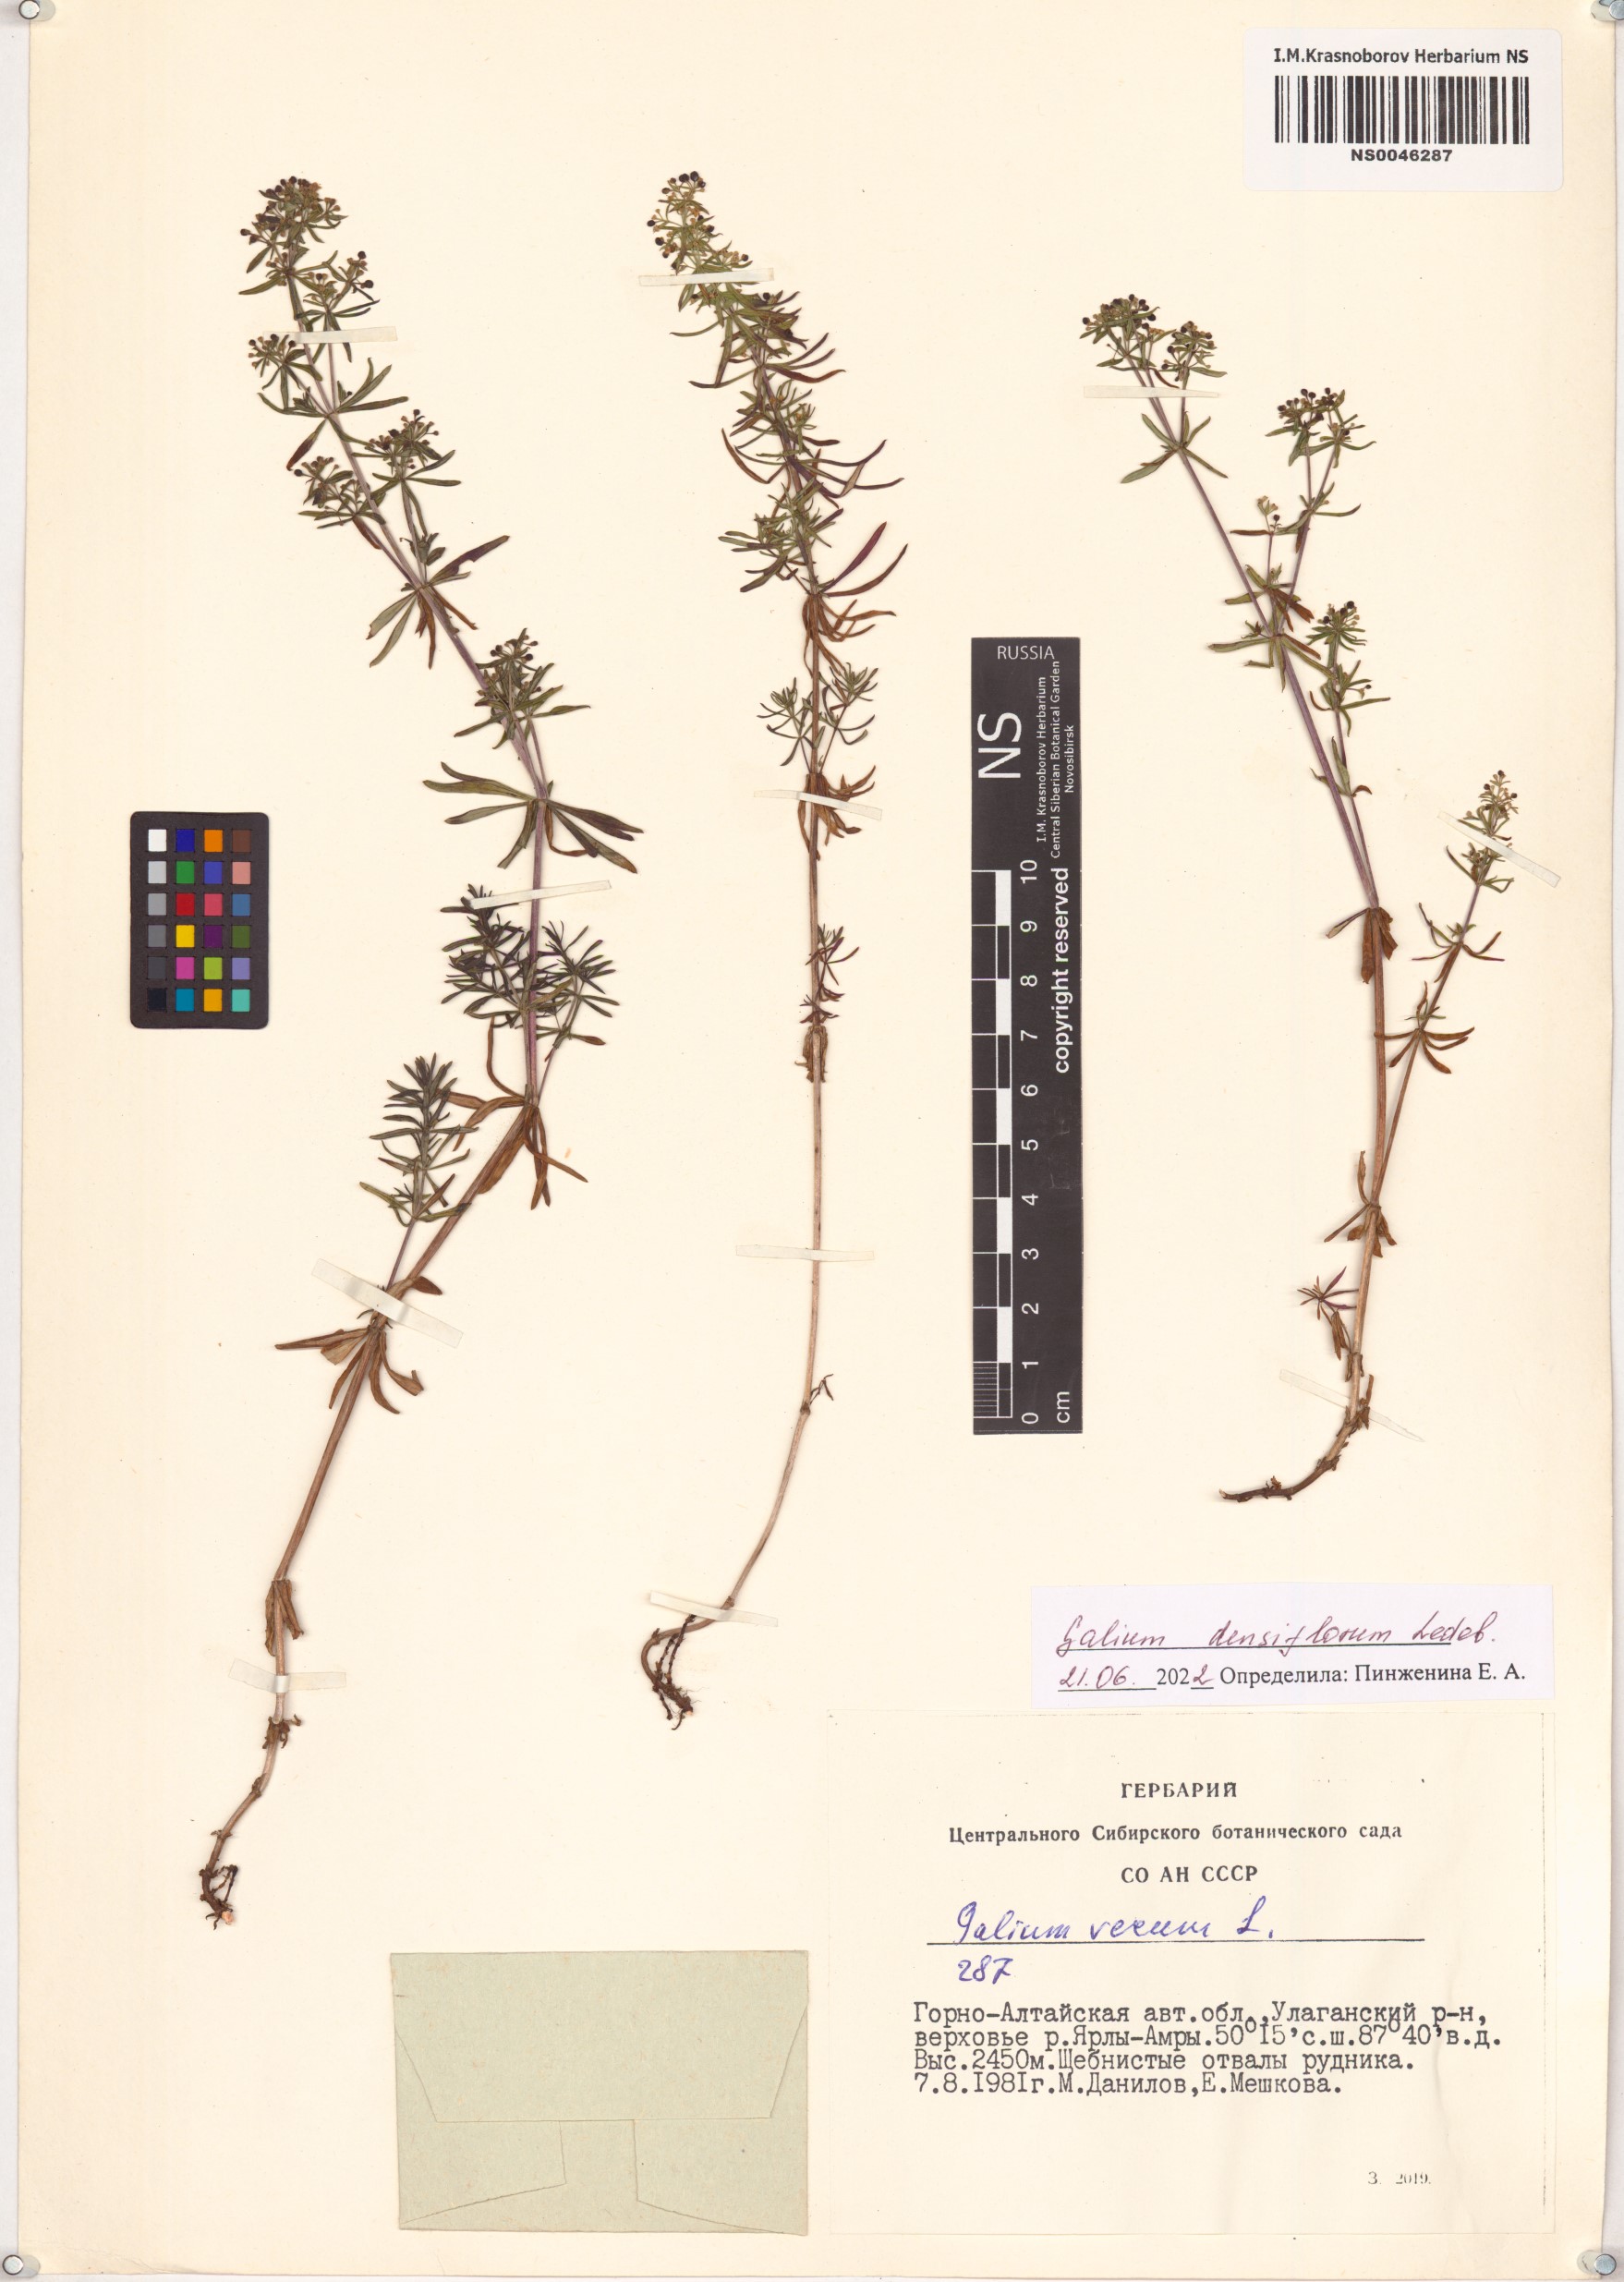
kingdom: Plantae
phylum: Tracheophyta
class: Magnoliopsida
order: Gentianales
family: Rubiaceae
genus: Galium
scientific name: Galium densiflorum
